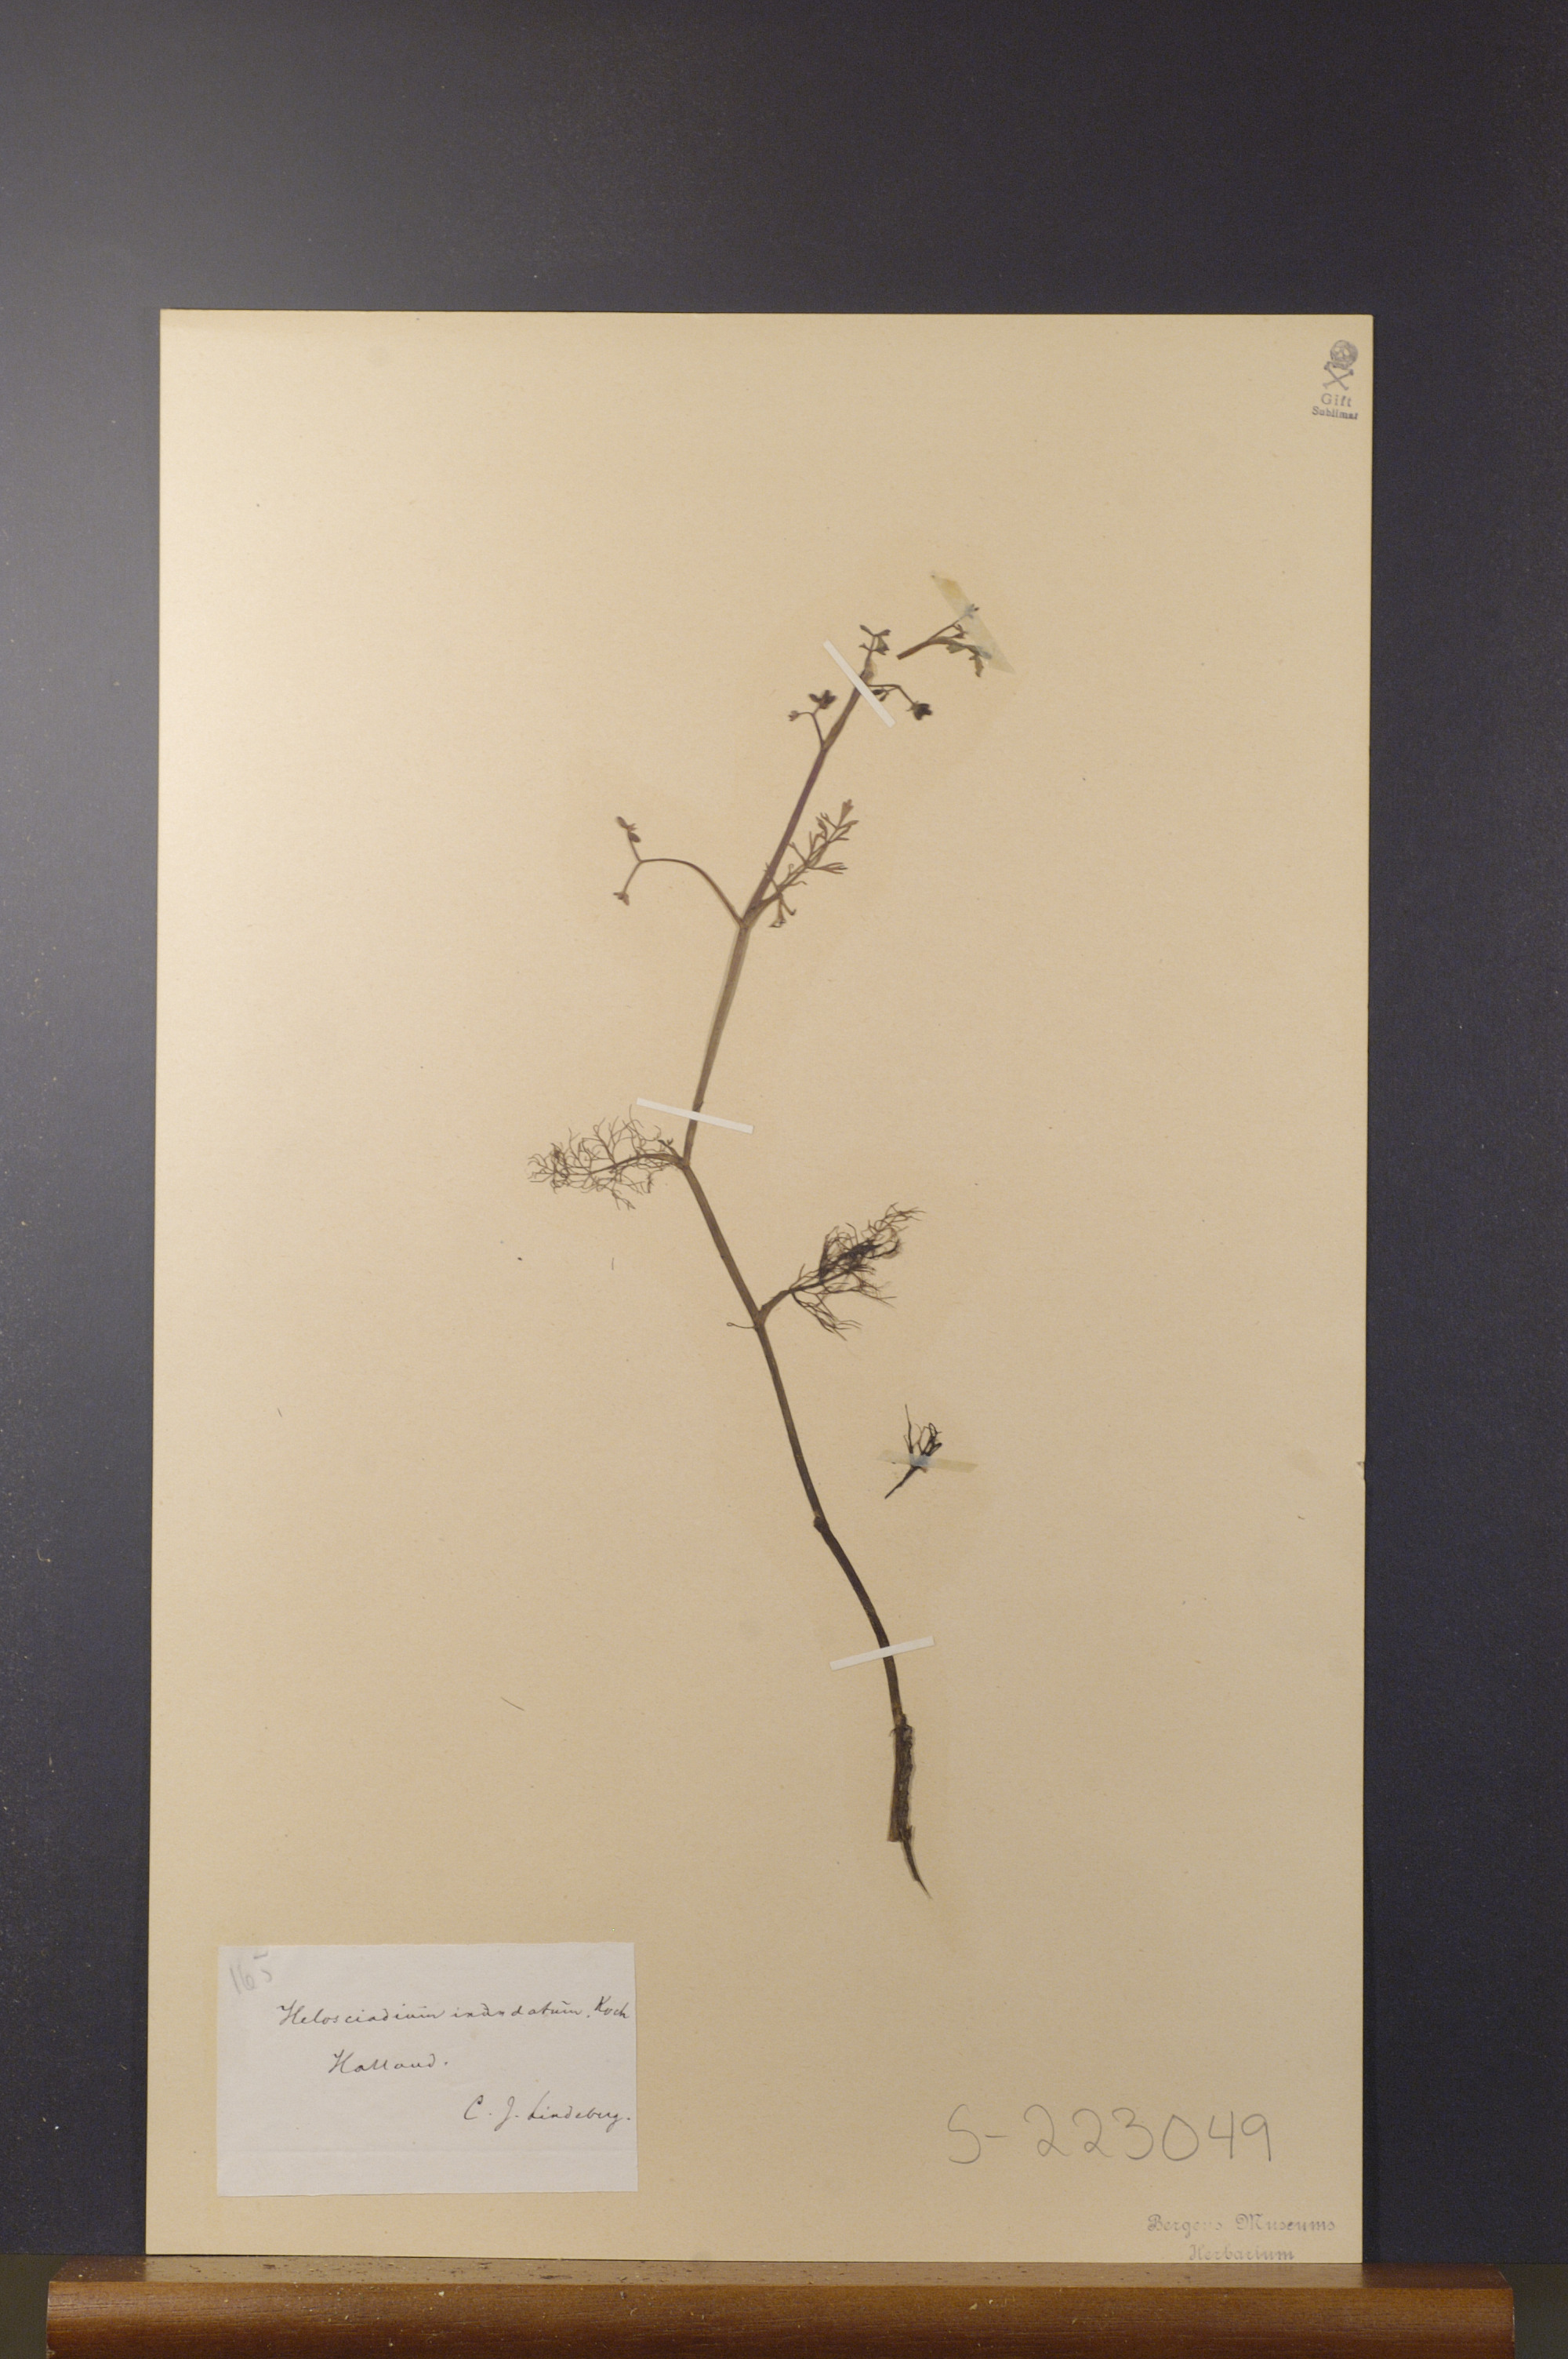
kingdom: Plantae
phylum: Tracheophyta
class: Magnoliopsida
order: Apiales
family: Apiaceae
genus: Helosciadium
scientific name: Helosciadium inundatum
